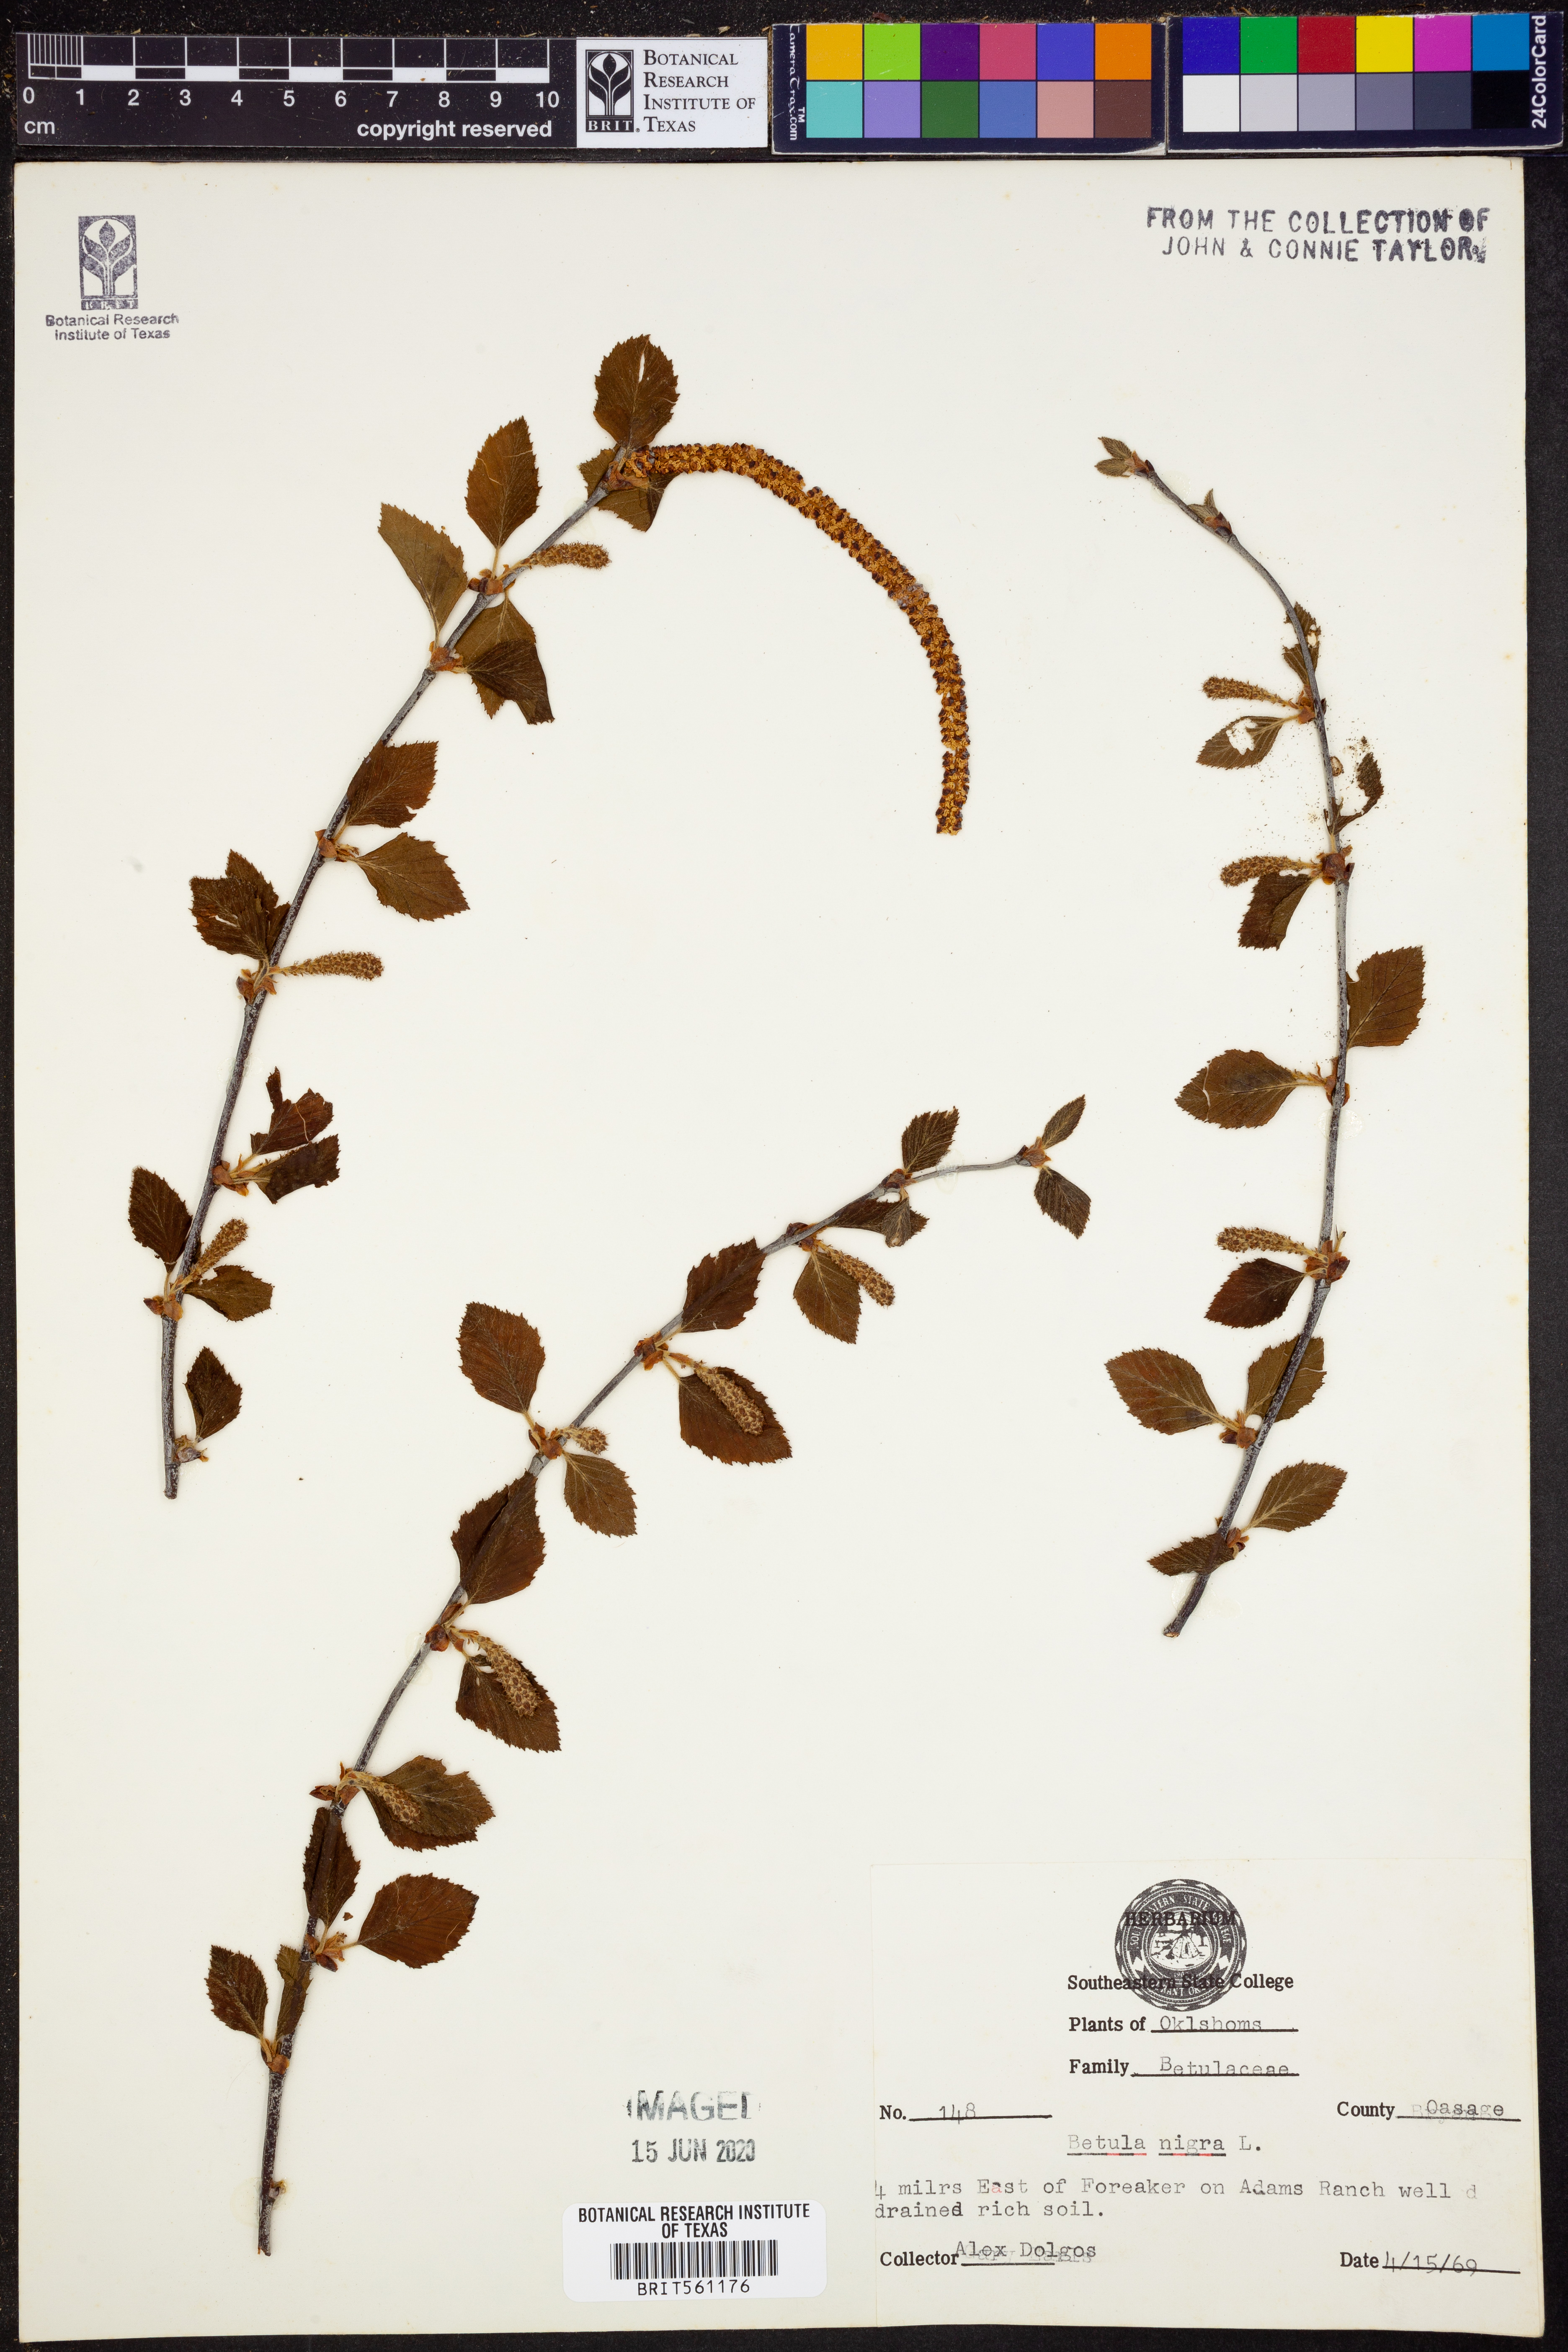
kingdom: Plantae
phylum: Tracheophyta
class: Magnoliopsida
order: Fagales
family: Betulaceae
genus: Betula
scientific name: Betula nigra
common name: Black birch
